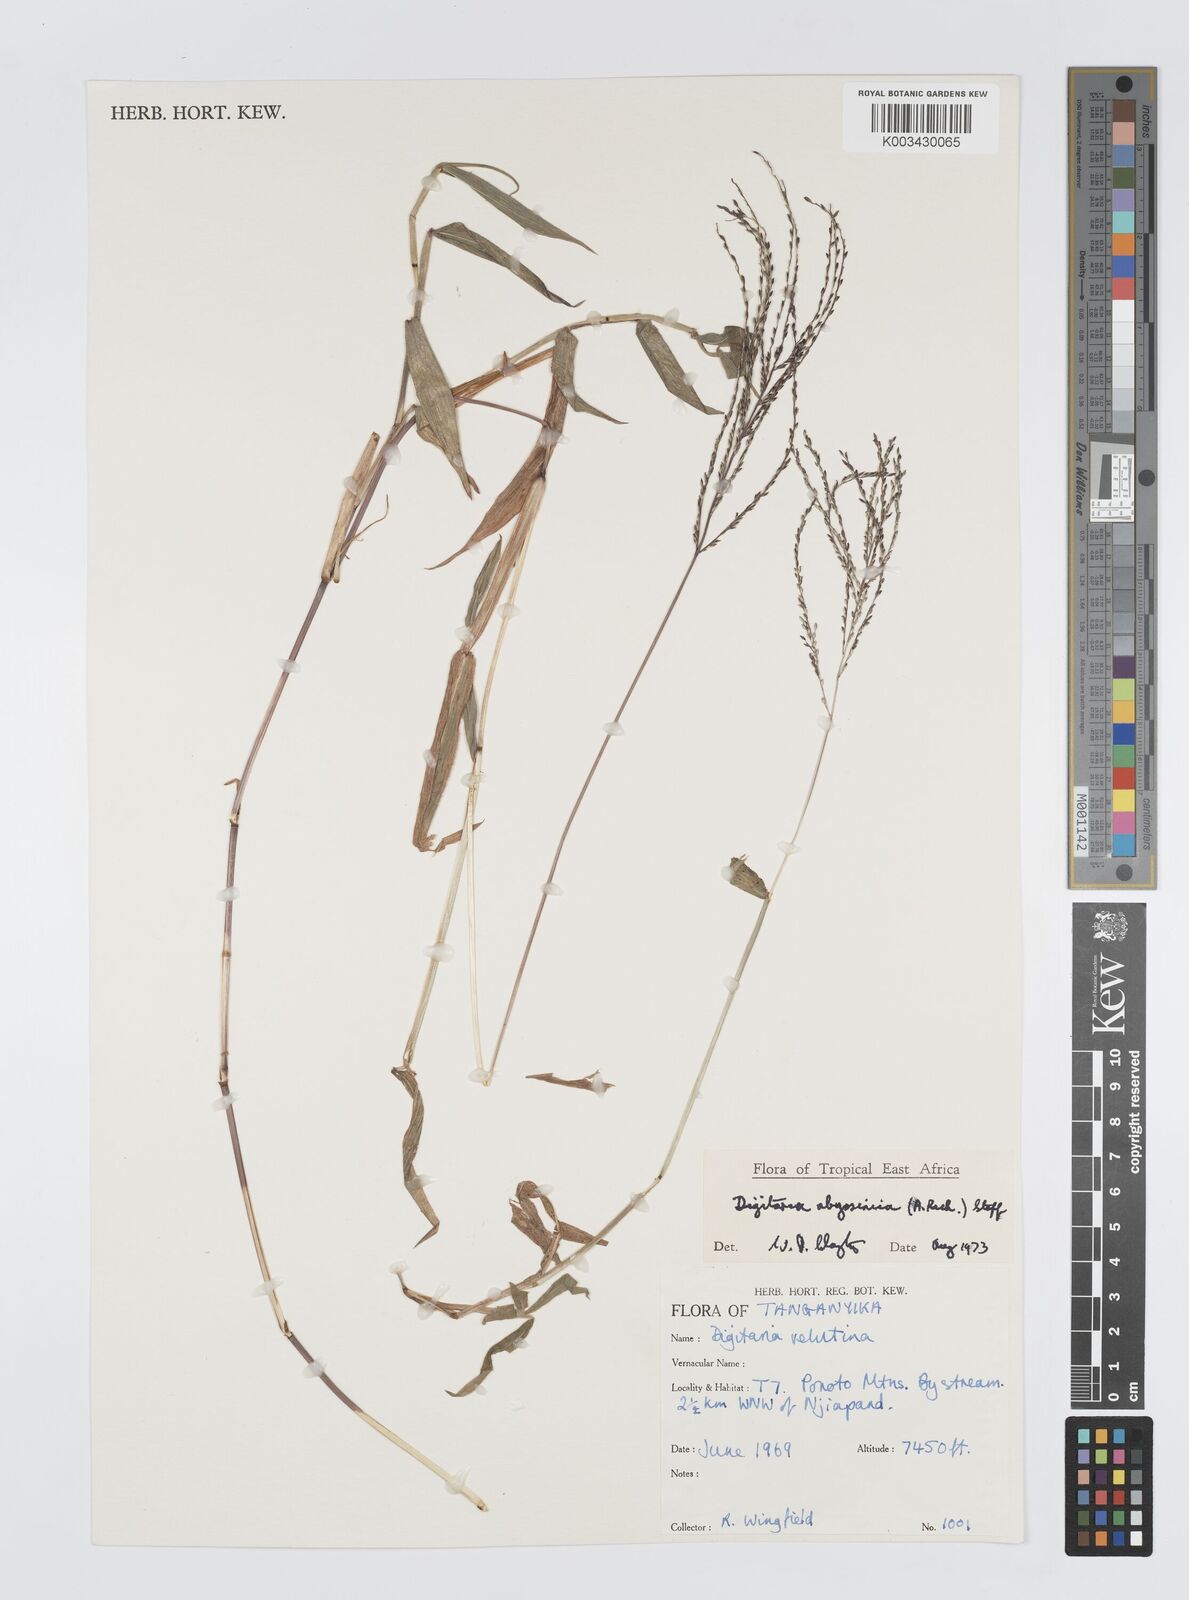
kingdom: Plantae
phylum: Tracheophyta
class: Liliopsida
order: Poales
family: Poaceae
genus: Digitaria
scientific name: Digitaria abyssinica
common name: African couchgrass
